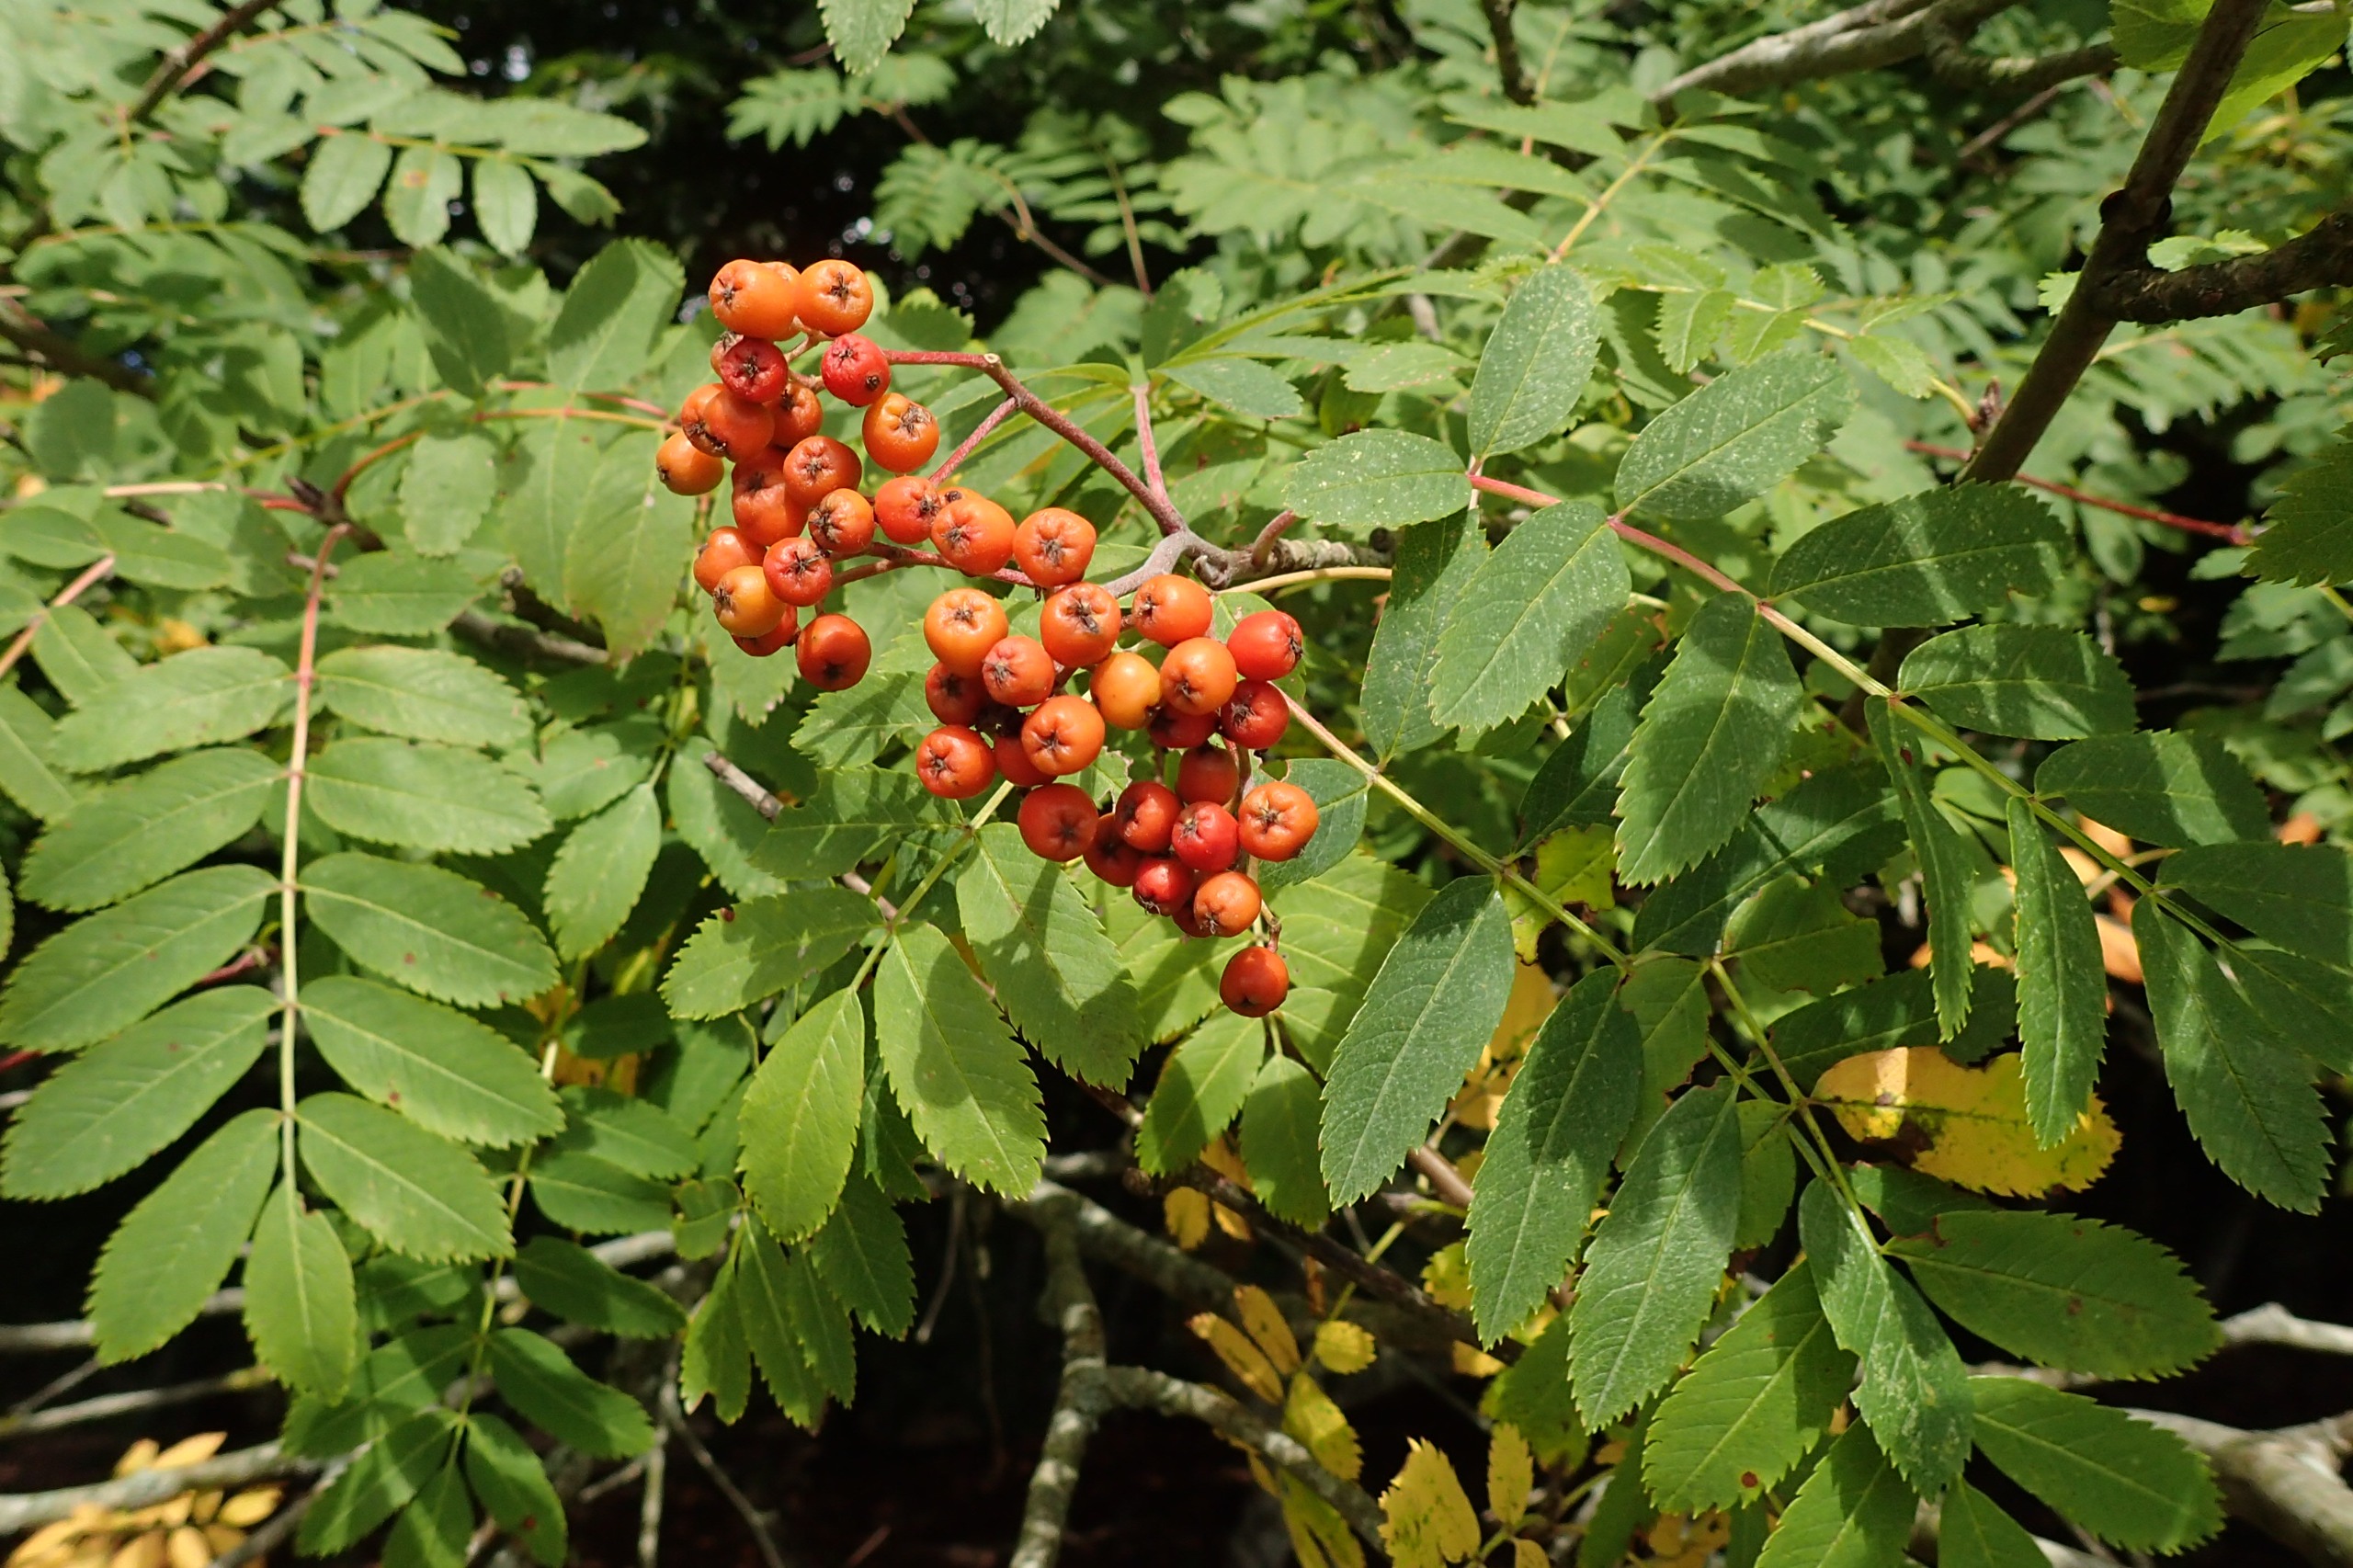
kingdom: Plantae
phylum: Tracheophyta
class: Magnoliopsida
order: Rosales
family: Rosaceae
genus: Sorbus
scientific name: Sorbus aucuparia
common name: Almindelig røn
